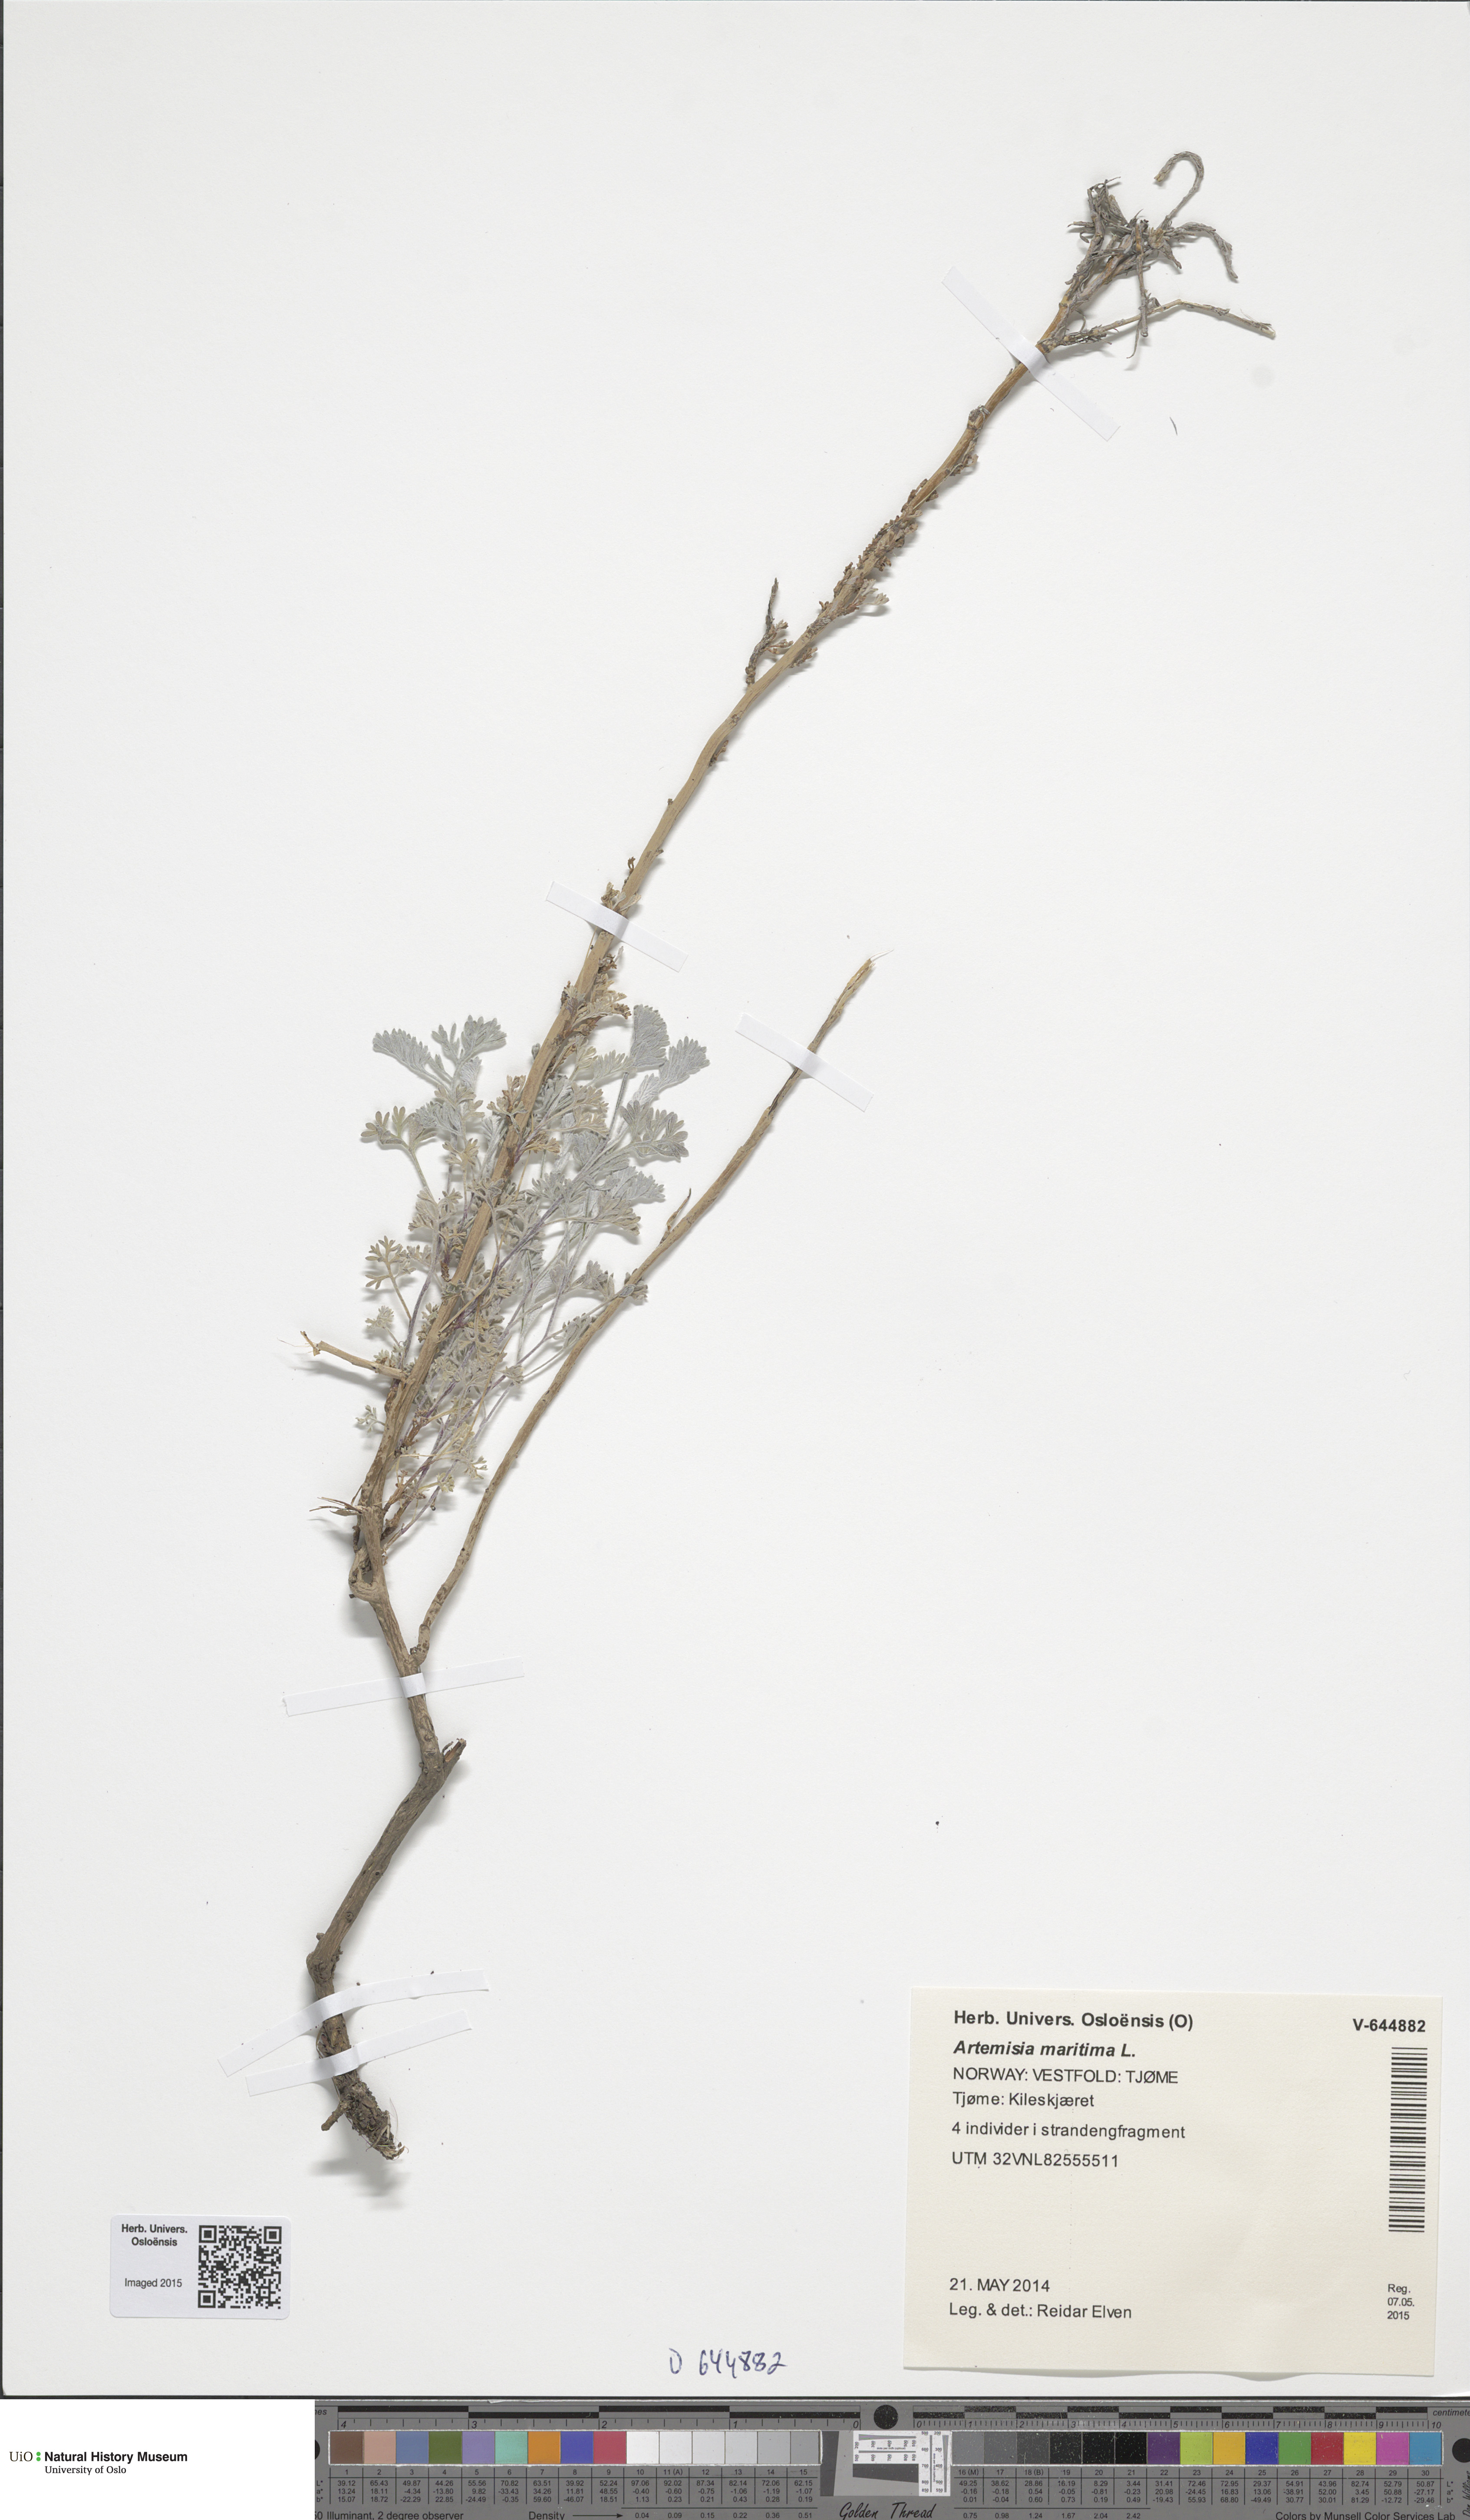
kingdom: Plantae
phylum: Tracheophyta
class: Magnoliopsida
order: Asterales
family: Asteraceae
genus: Artemisia
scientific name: Artemisia maritima
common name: Wormseed
